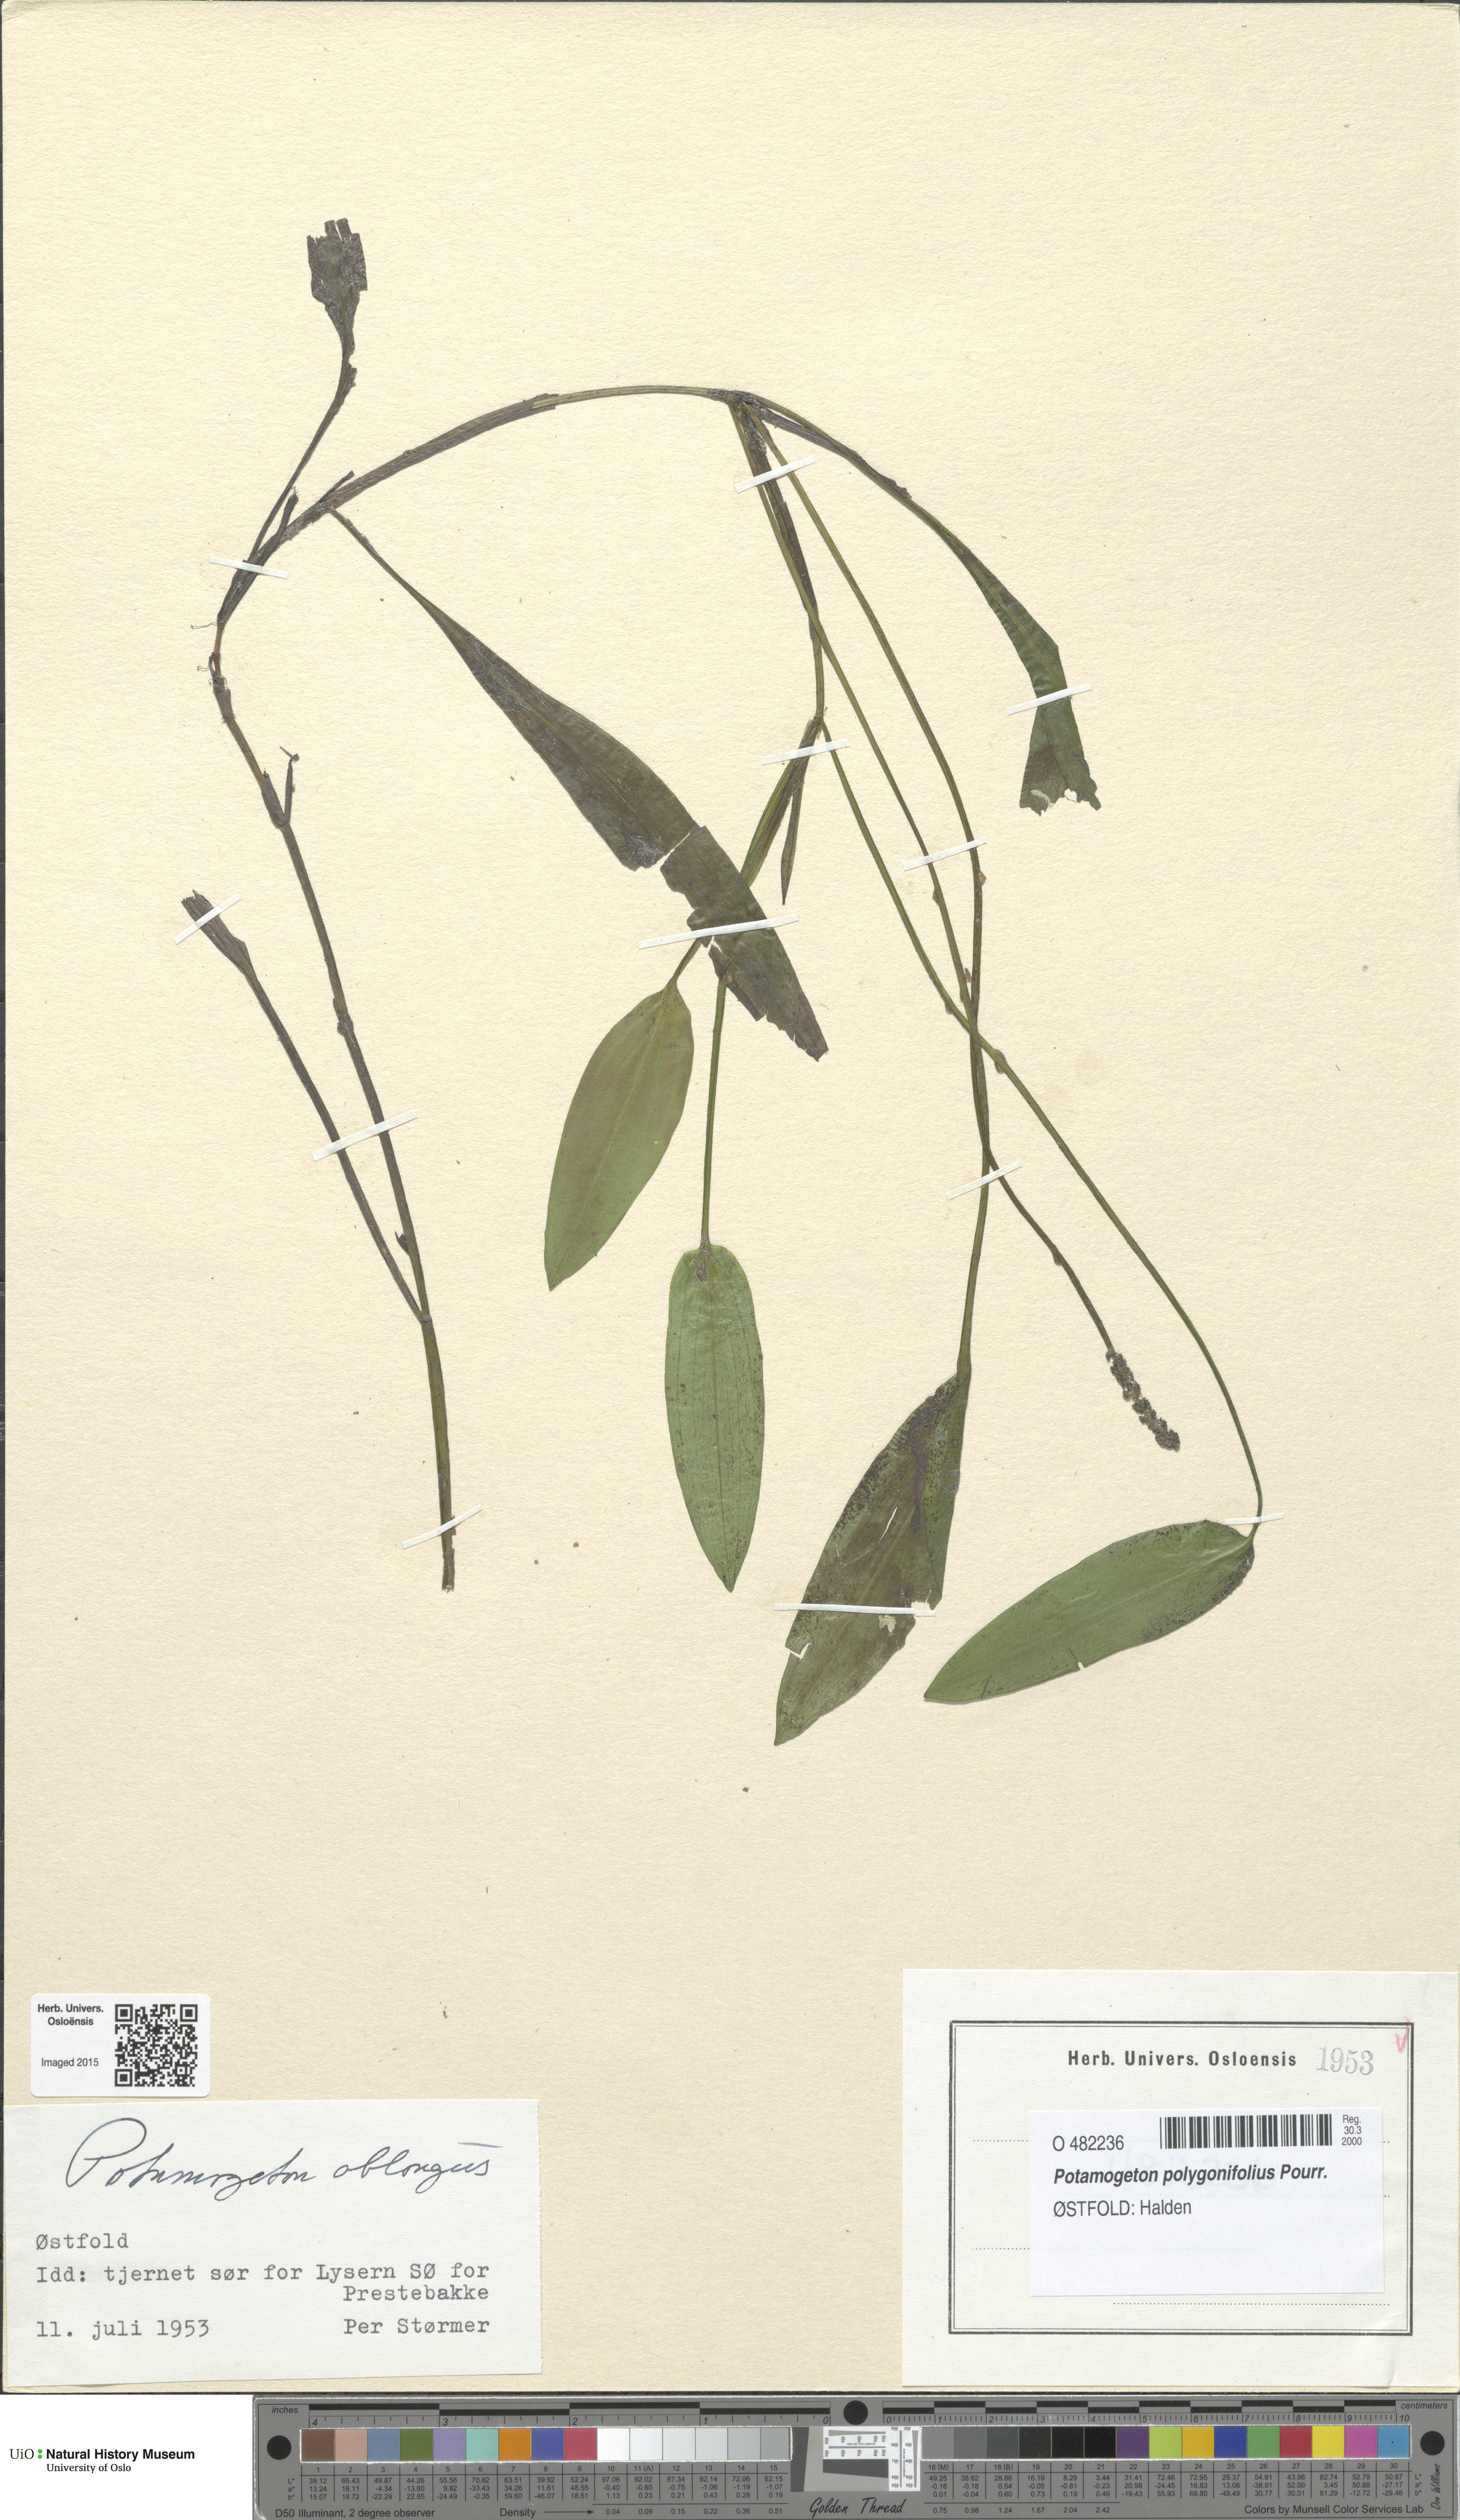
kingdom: Plantae
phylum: Tracheophyta
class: Liliopsida
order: Alismatales
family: Potamogetonaceae
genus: Potamogeton
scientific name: Potamogeton polygonifolius
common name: Bog pondweed
